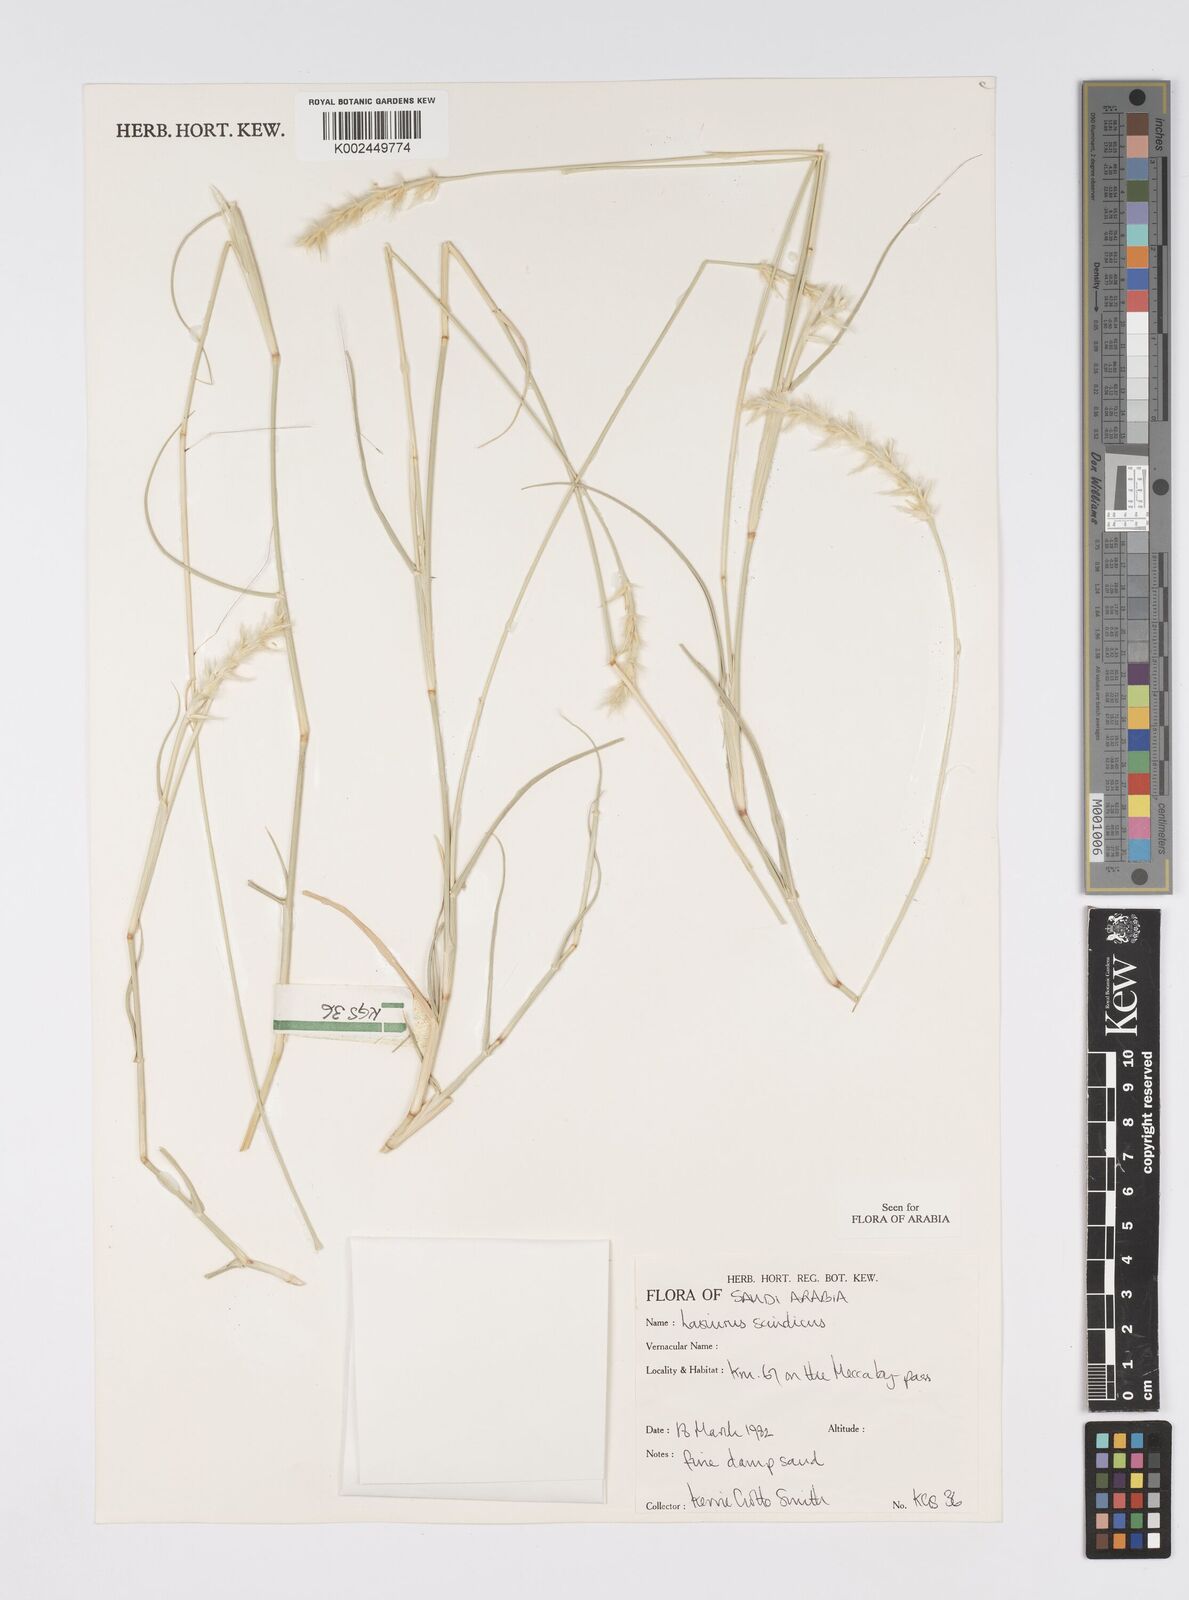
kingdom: Plantae
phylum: Tracheophyta
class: Liliopsida
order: Poales
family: Poaceae
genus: Lasiurus
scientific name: Lasiurus scindicus
